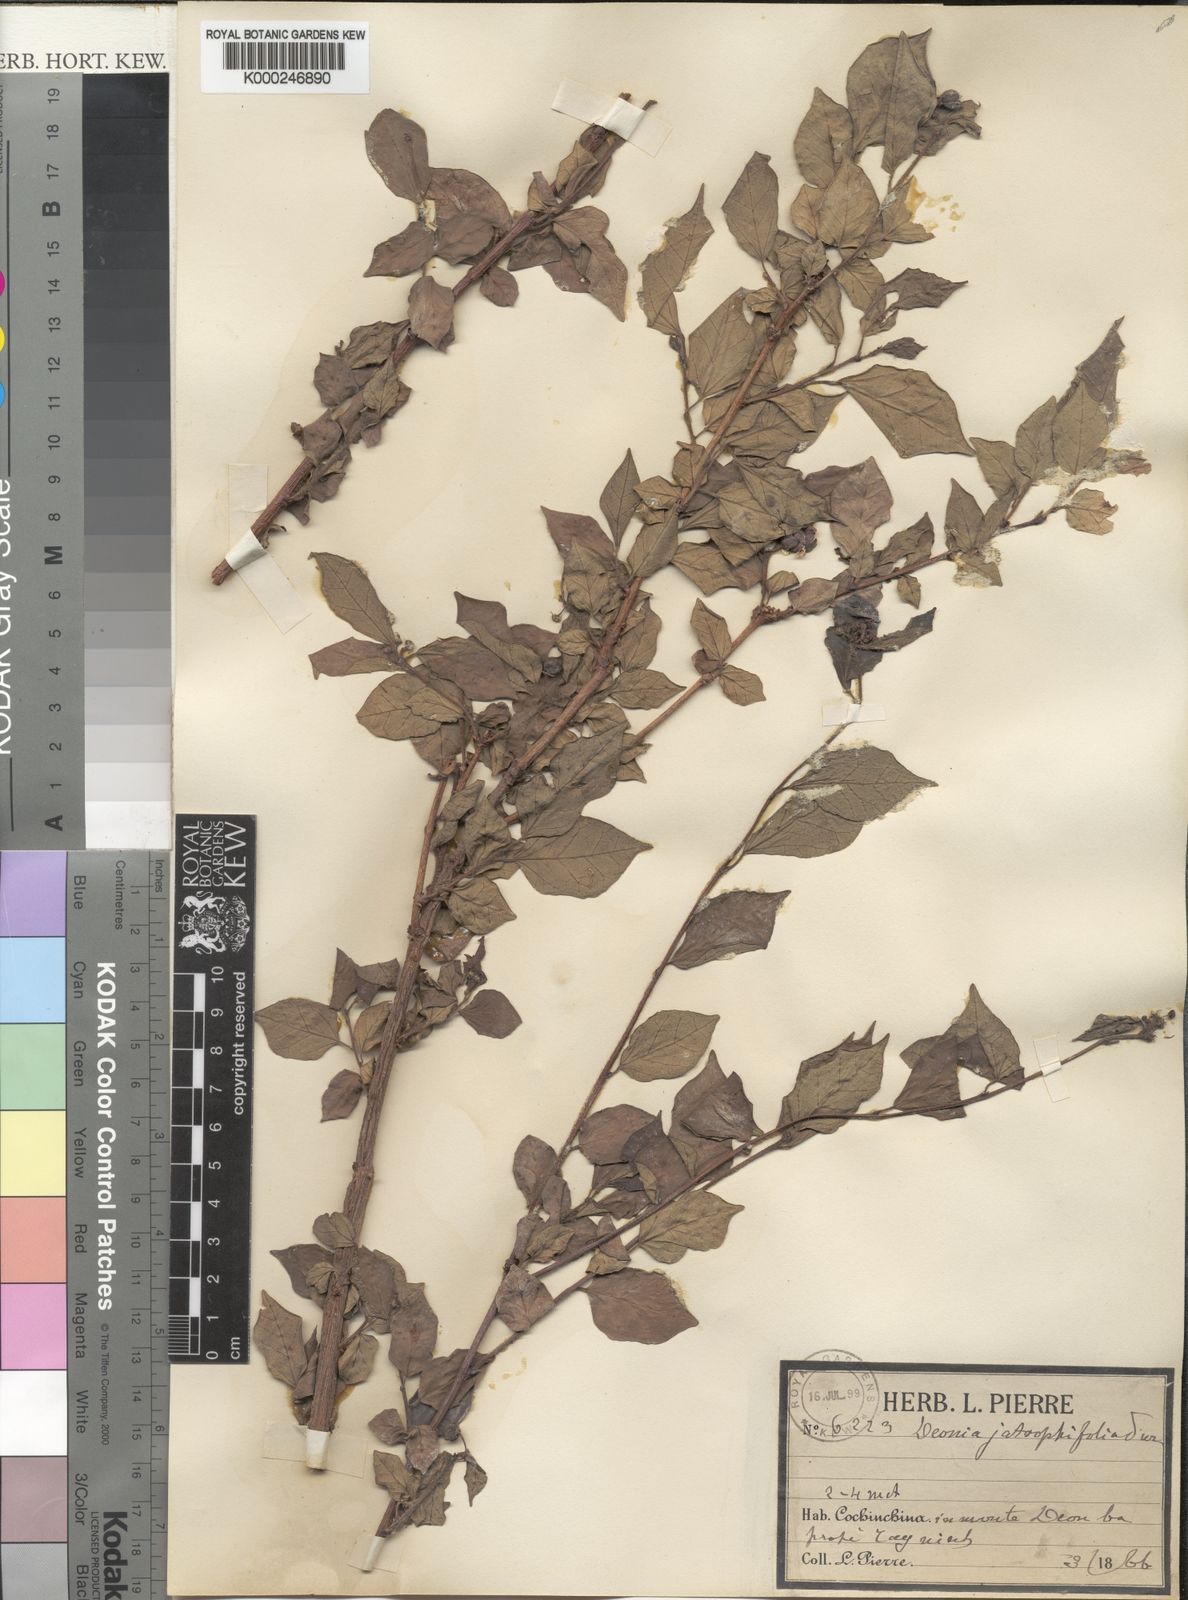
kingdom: Plantae
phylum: Tracheophyta
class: Magnoliopsida
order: Malpighiales
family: Euphorbiaceae
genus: Blachia
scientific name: Blachia jatrophifolia
